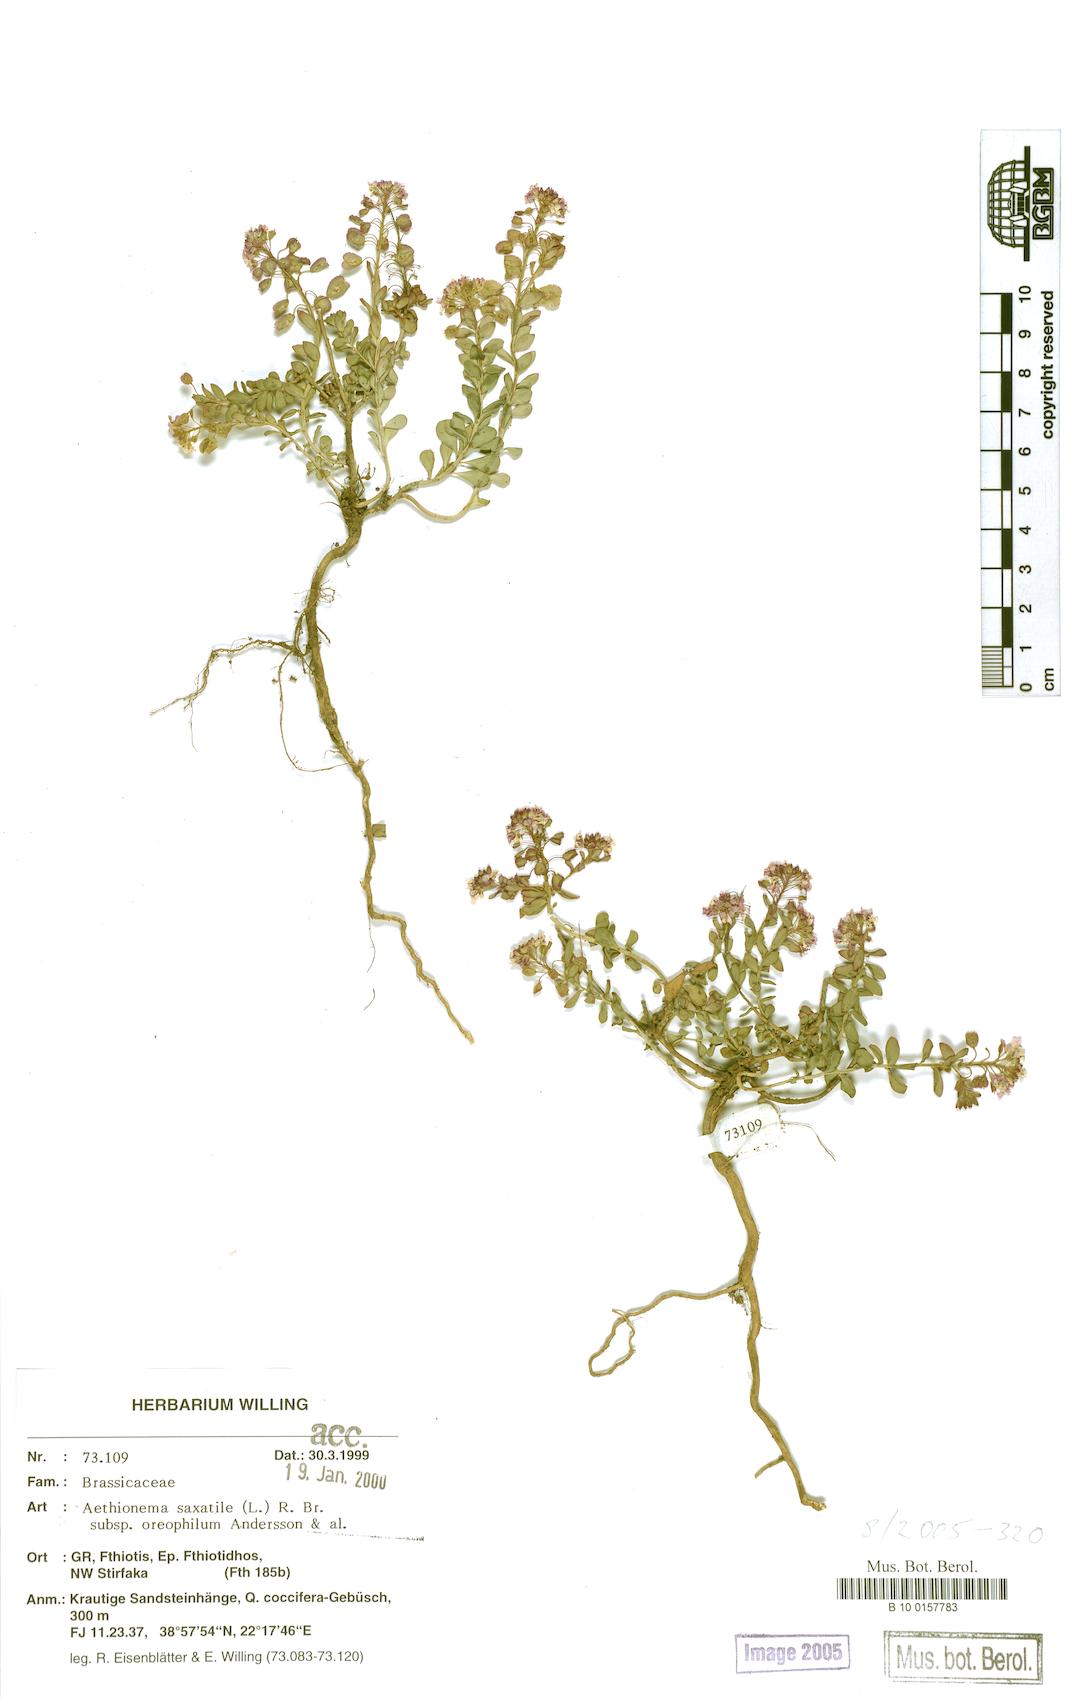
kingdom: Plantae
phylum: Tracheophyta
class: Magnoliopsida
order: Brassicales
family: Brassicaceae
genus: Aethionema
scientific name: Aethionema saxatile
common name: Burnt candytuft
